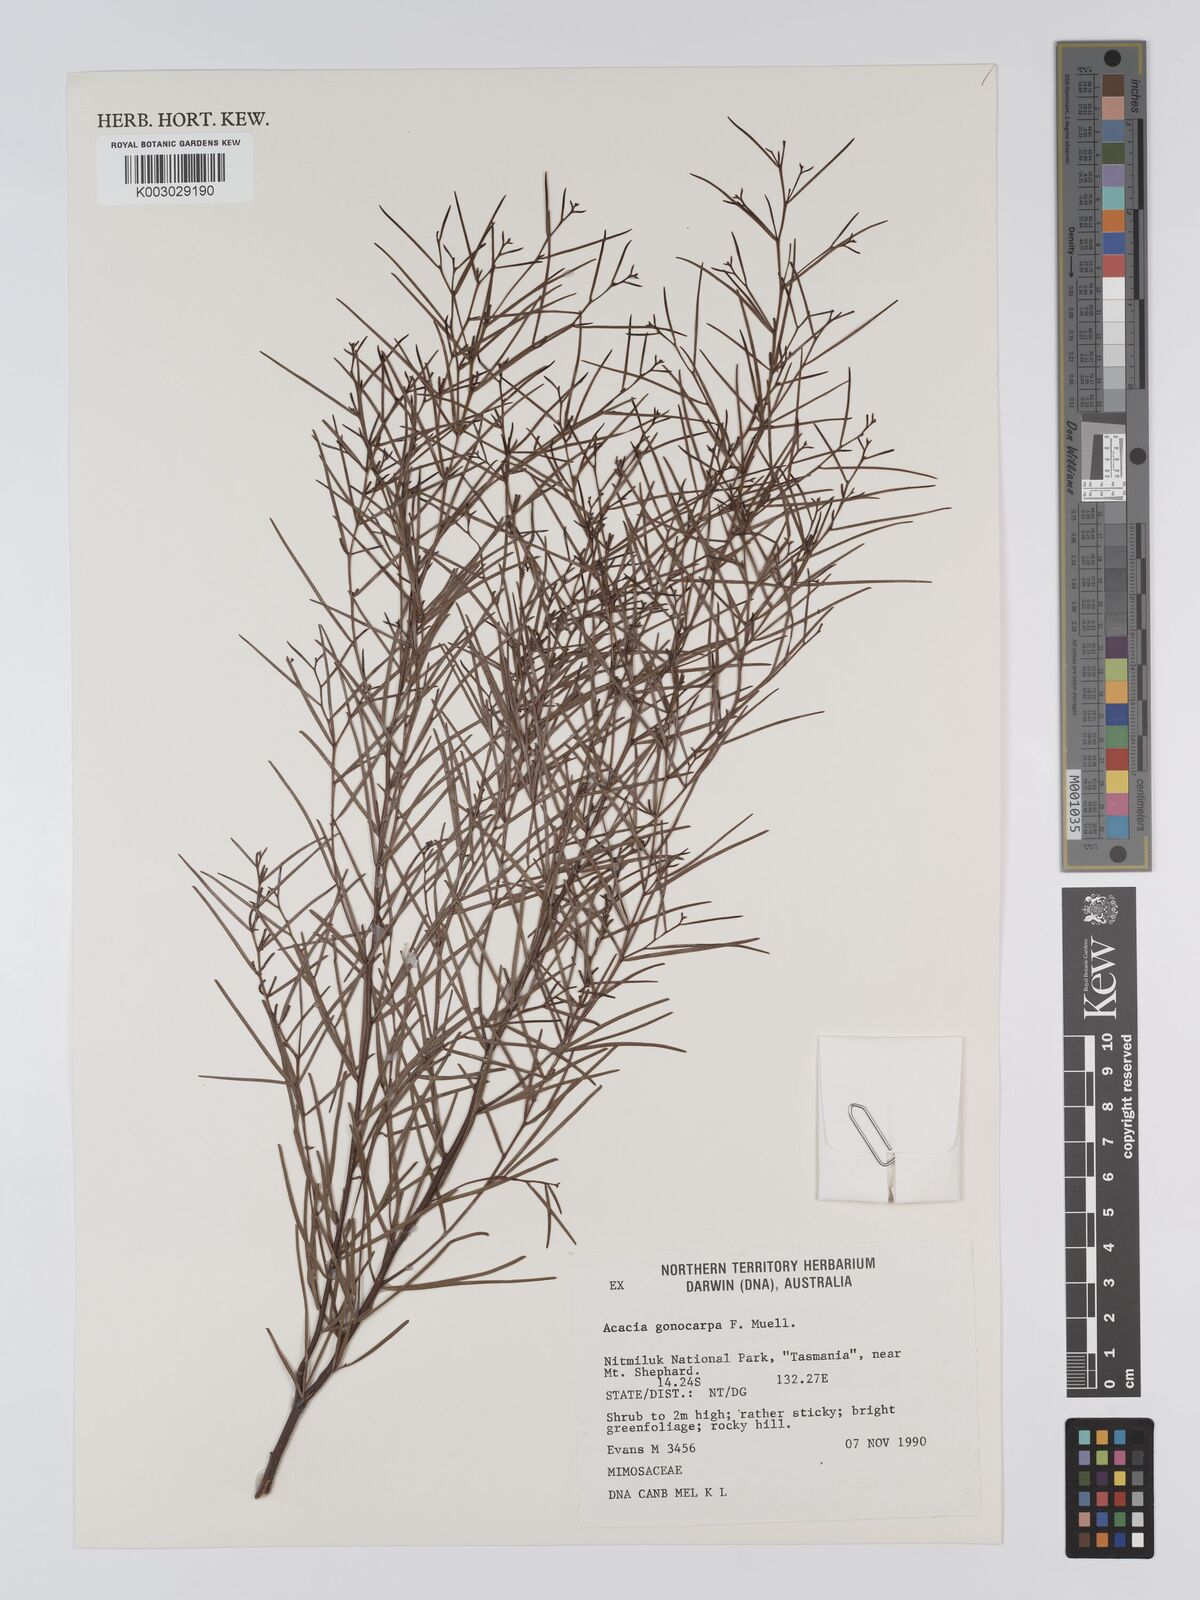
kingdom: Plantae
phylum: Tracheophyta
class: Magnoliopsida
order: Fabales
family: Fabaceae
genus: Acacia
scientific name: Acacia gonocarpa
